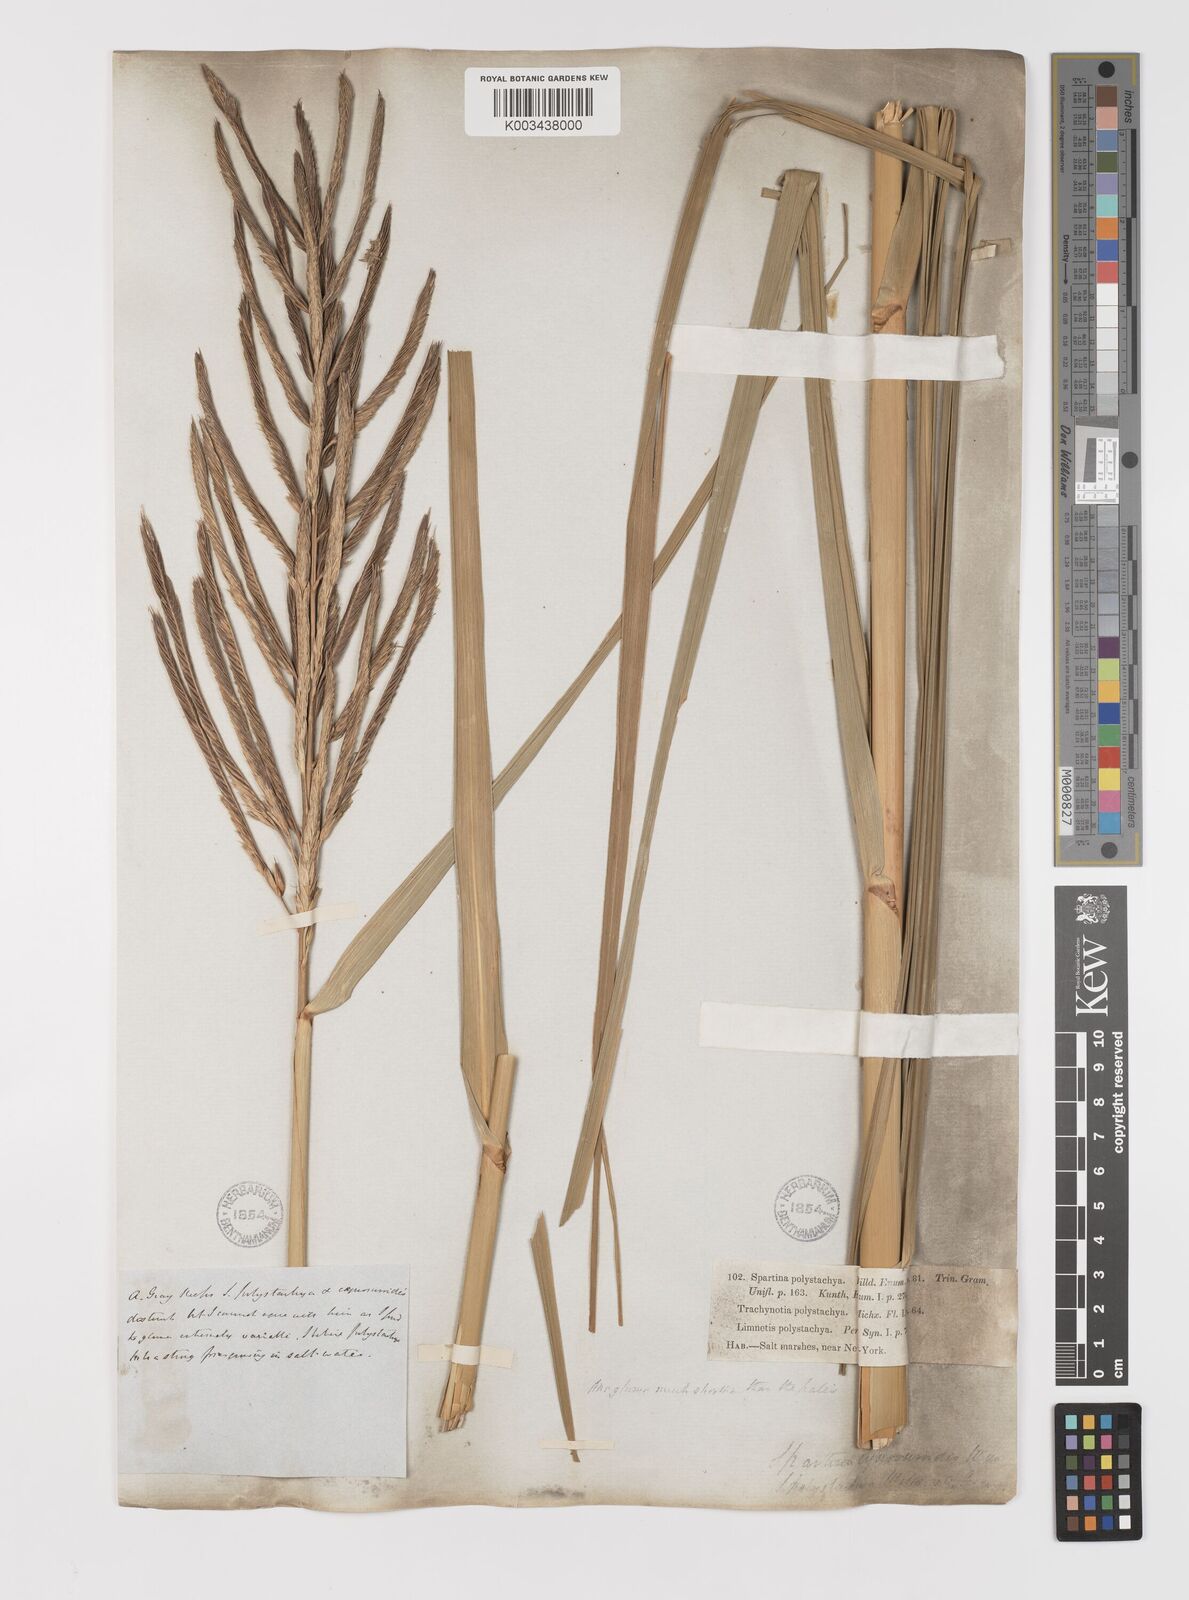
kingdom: Plantae
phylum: Tracheophyta
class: Liliopsida
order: Poales
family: Poaceae
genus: Sporobolus
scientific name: Sporobolus cynosuroides
